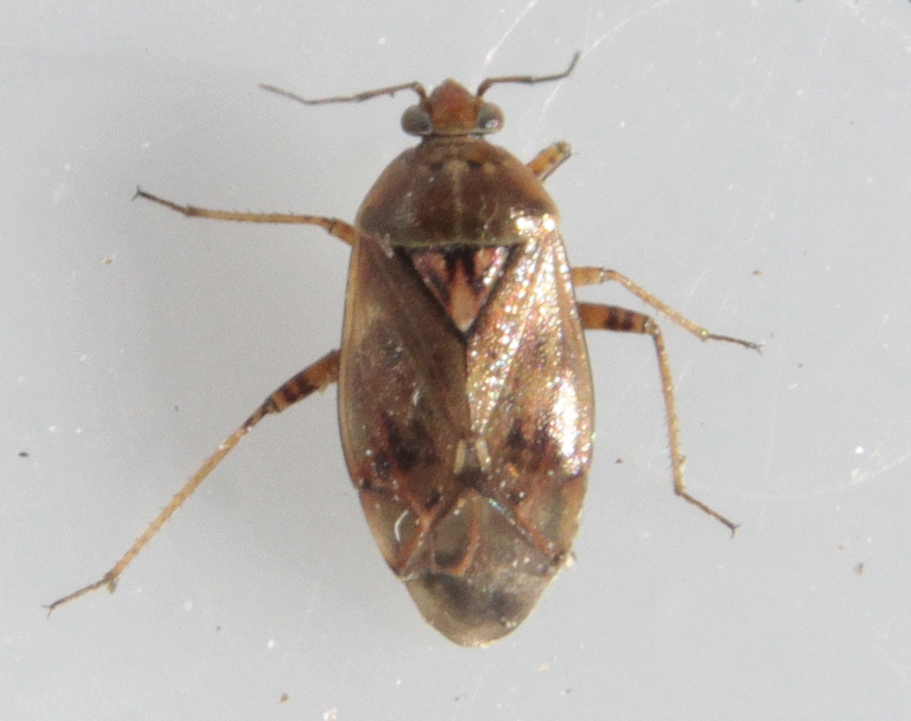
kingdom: Animalia
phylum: Arthropoda
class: Insecta
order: Hemiptera
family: Miridae
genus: Lygus
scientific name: Lygus
